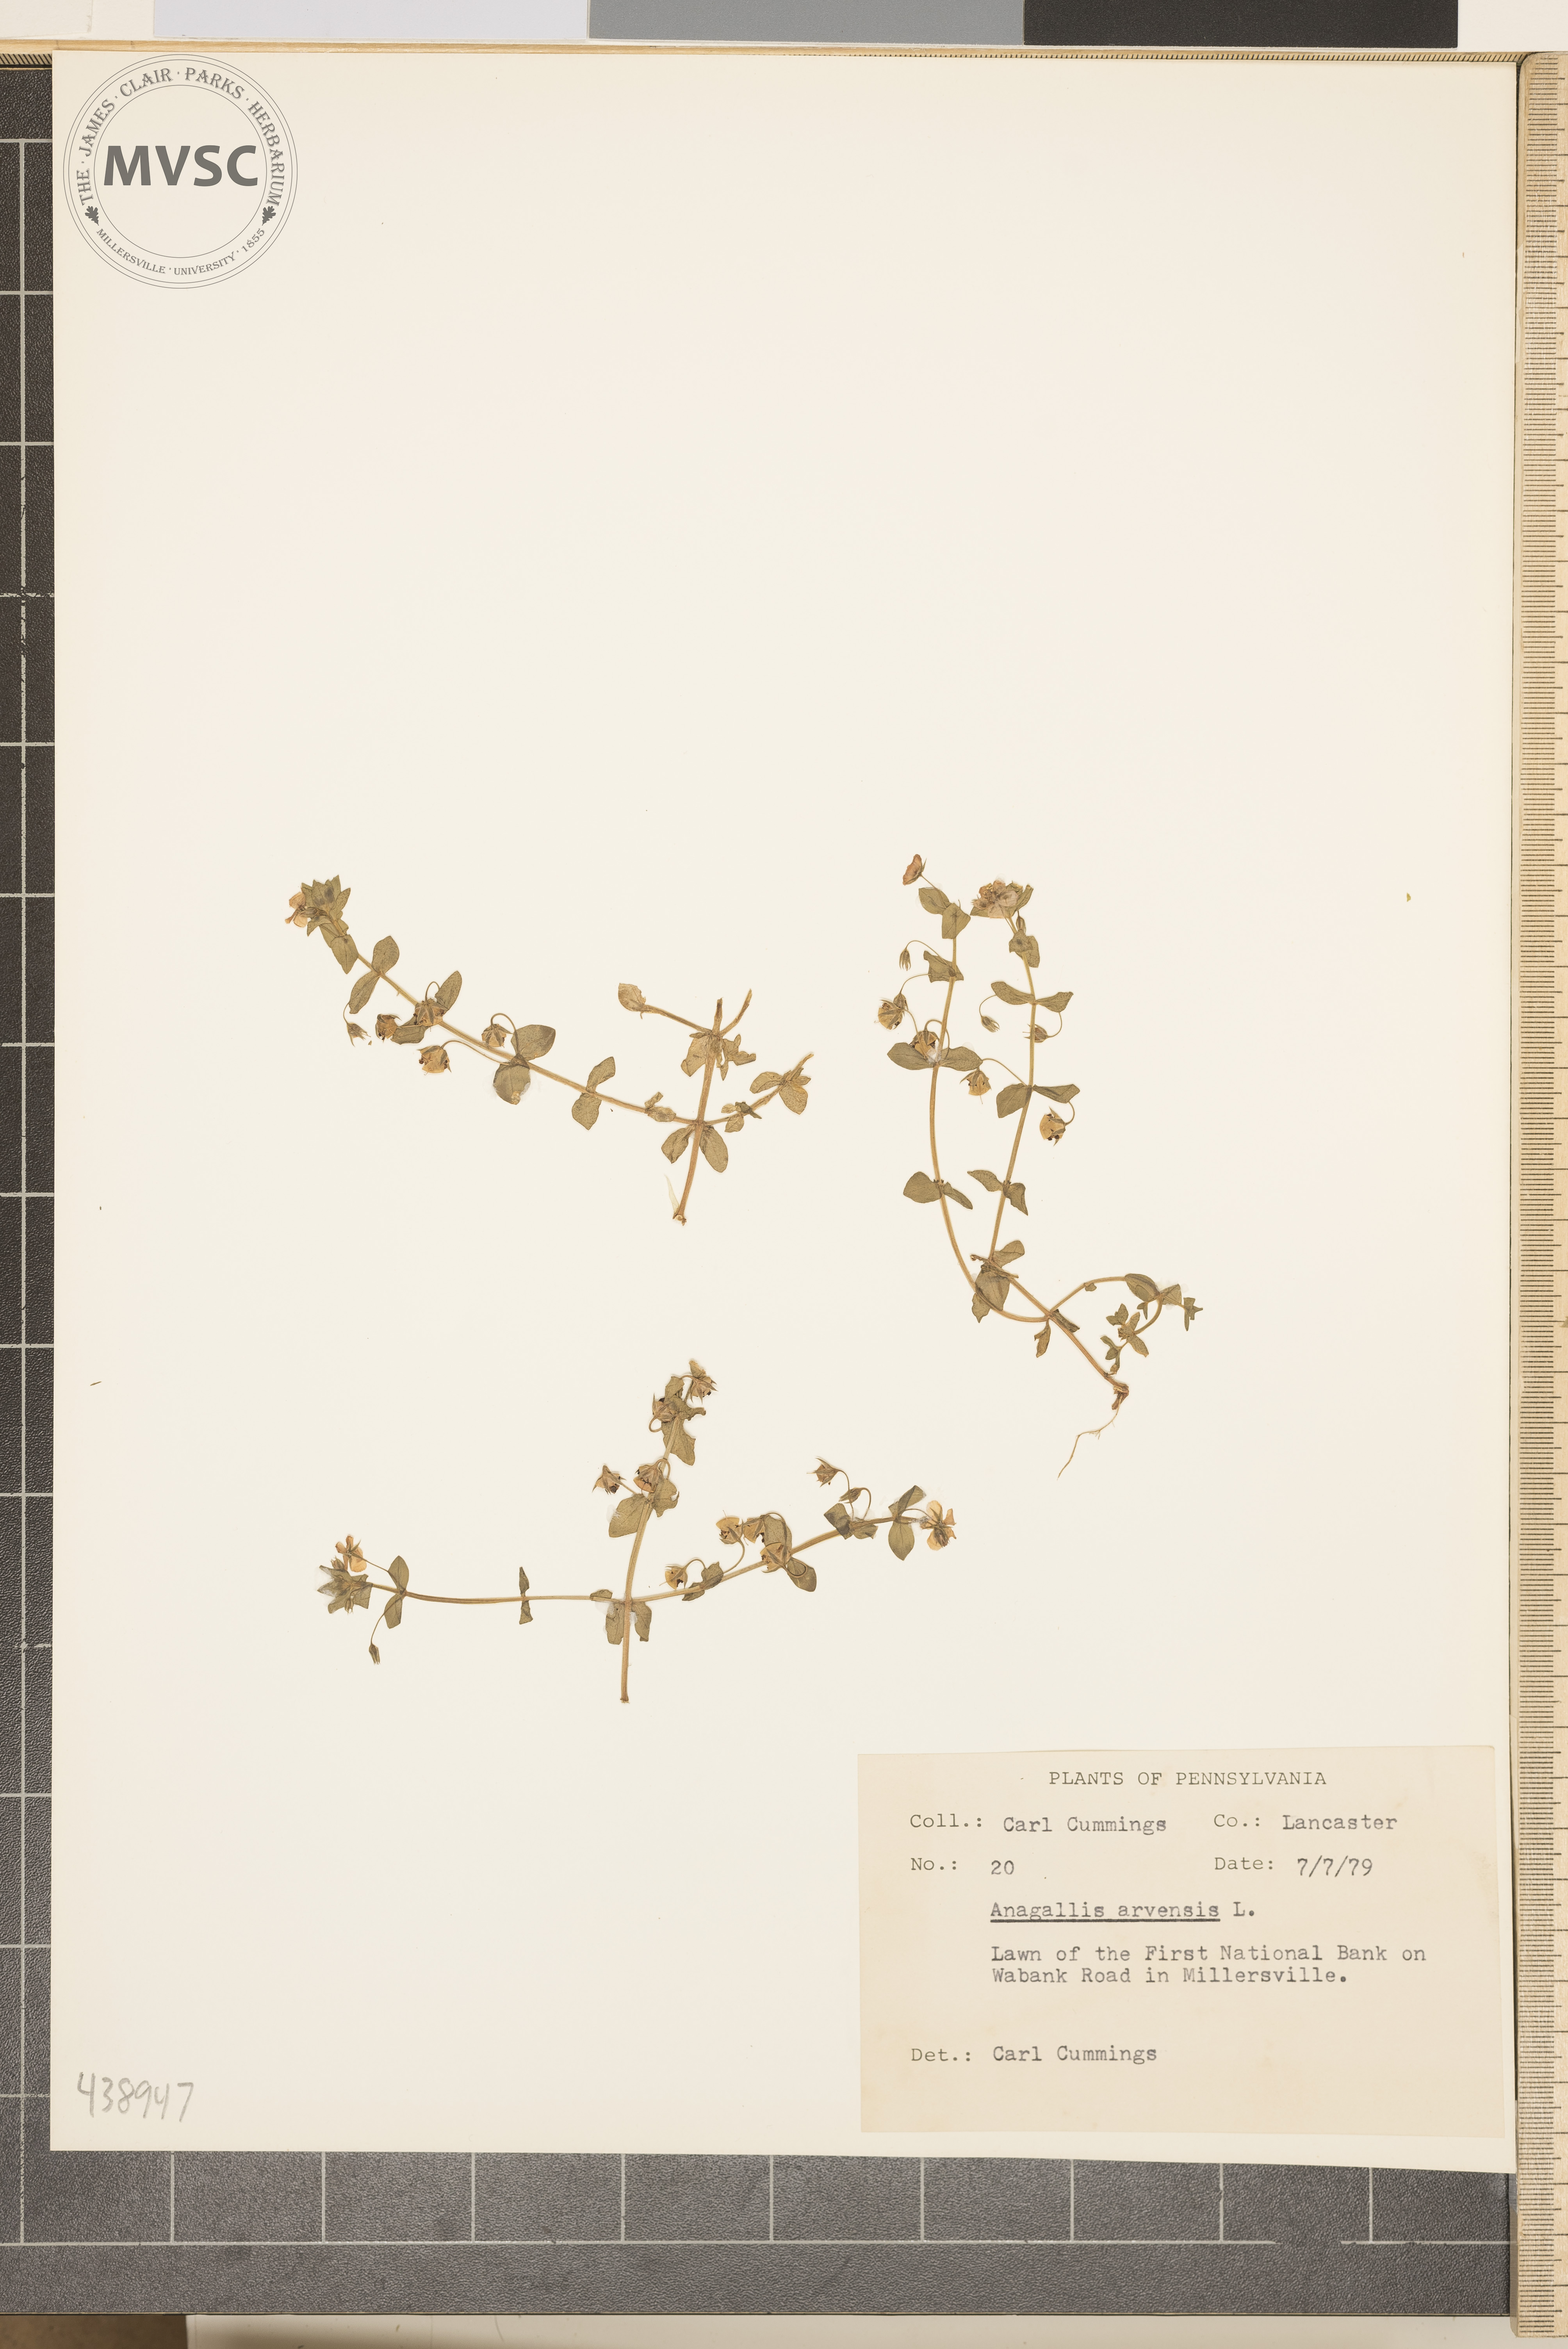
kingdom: Plantae
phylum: Tracheophyta
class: Magnoliopsida
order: Ericales
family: Primulaceae
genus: Lysimachia
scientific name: Lysimachia arvensis
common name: Scarlet pimpernel
